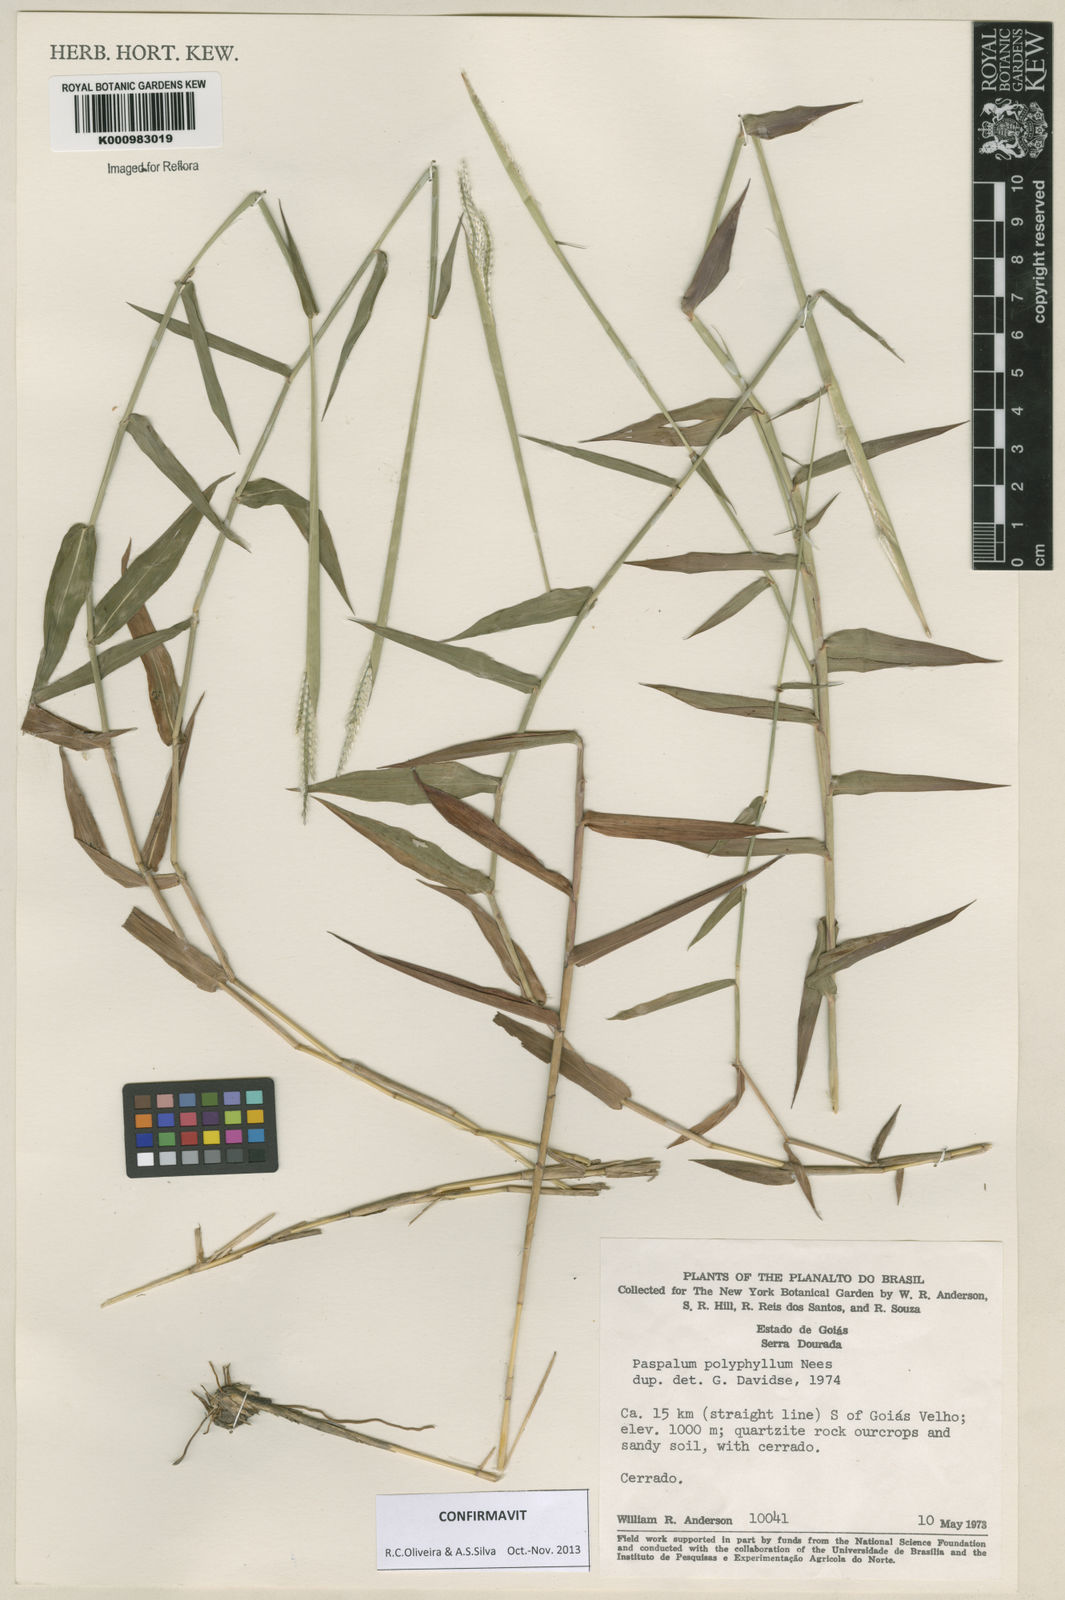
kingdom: Plantae
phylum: Tracheophyta
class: Liliopsida
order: Poales
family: Poaceae
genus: Paspalum
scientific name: Paspalum
